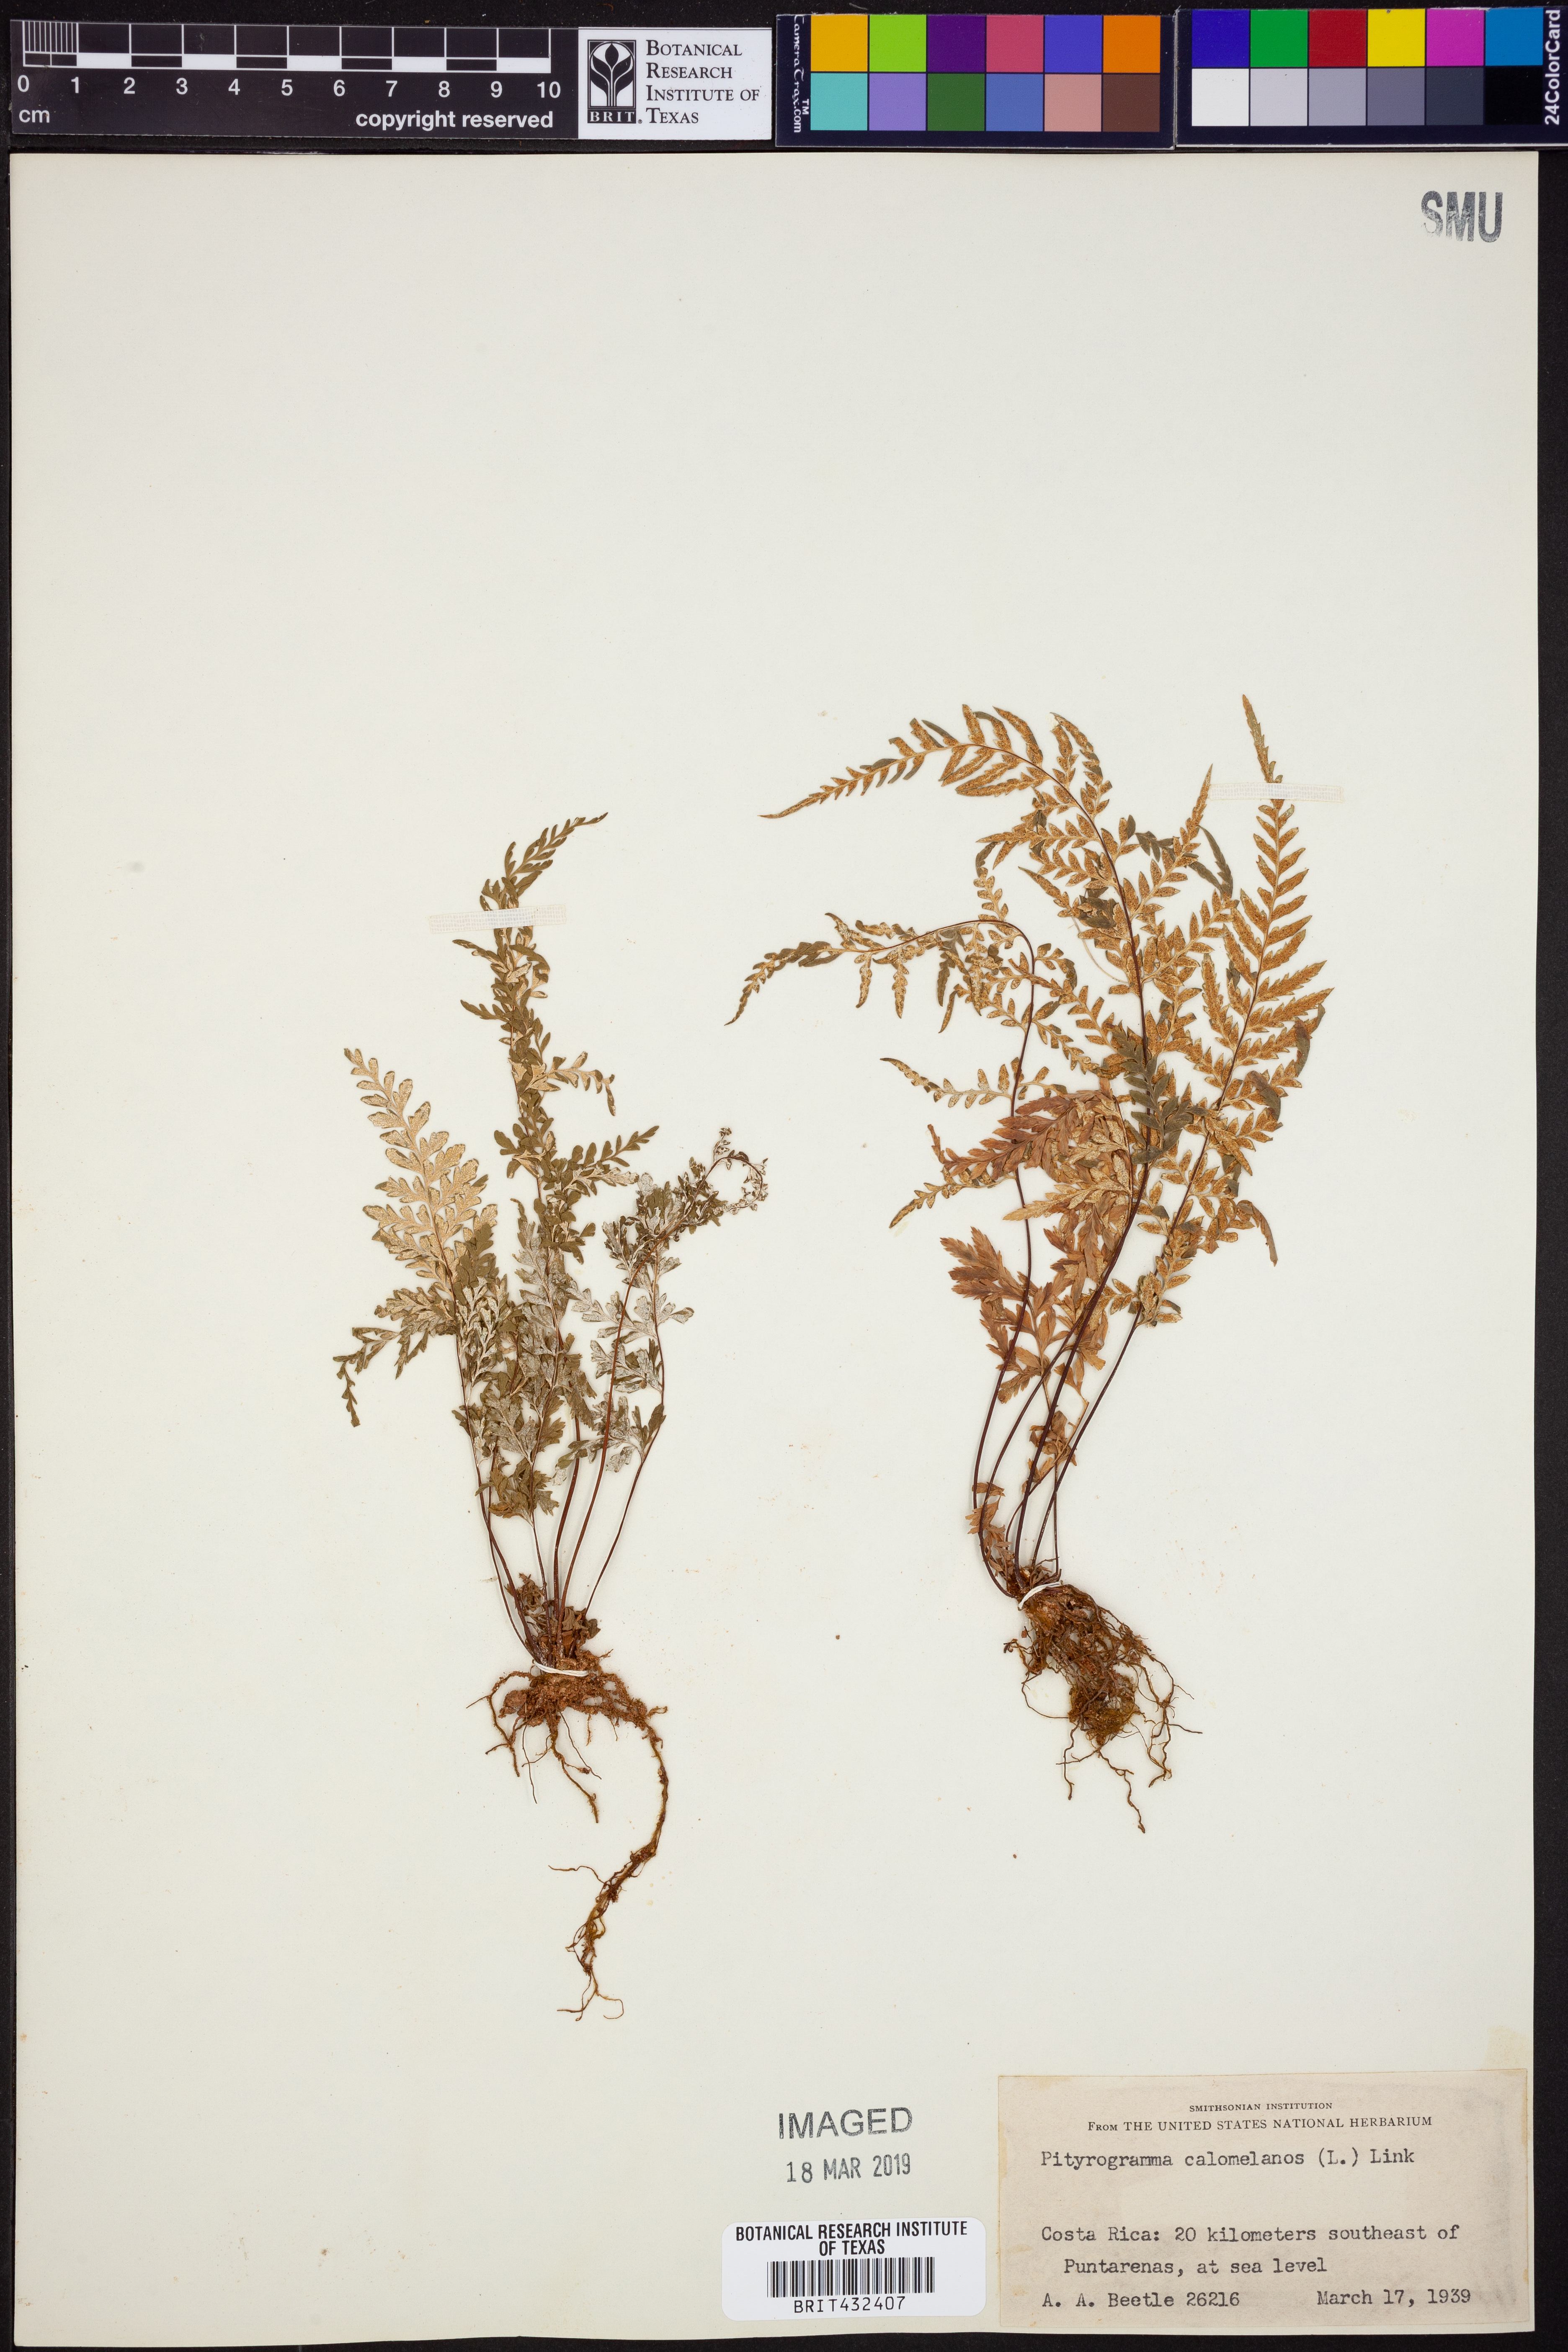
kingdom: Plantae
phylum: Tracheophyta
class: Polypodiopsida
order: Polypodiales
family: Pteridaceae
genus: Pityrogramma
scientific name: Pityrogramma calomelanos
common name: Dixie silverback fern
